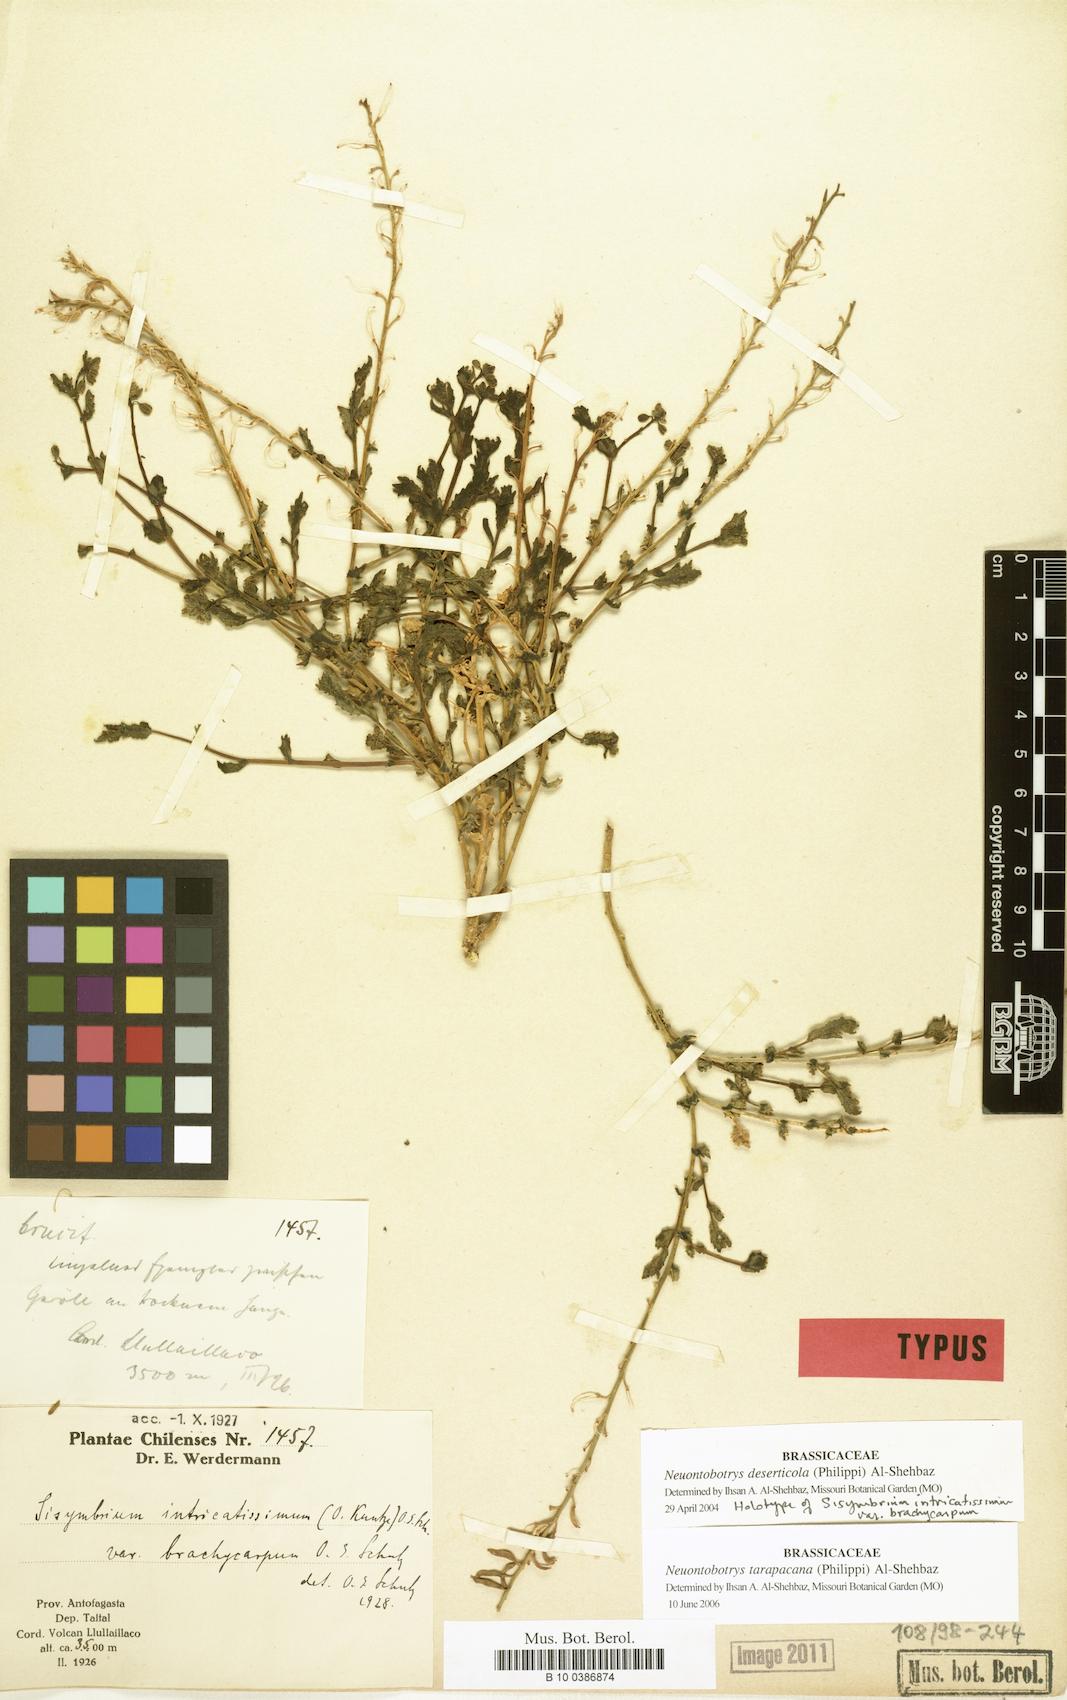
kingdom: Plantae
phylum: Tracheophyta
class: Magnoliopsida
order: Brassicales
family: Brassicaceae
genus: Neuontobotrys
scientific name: Neuontobotrys tarapacana
